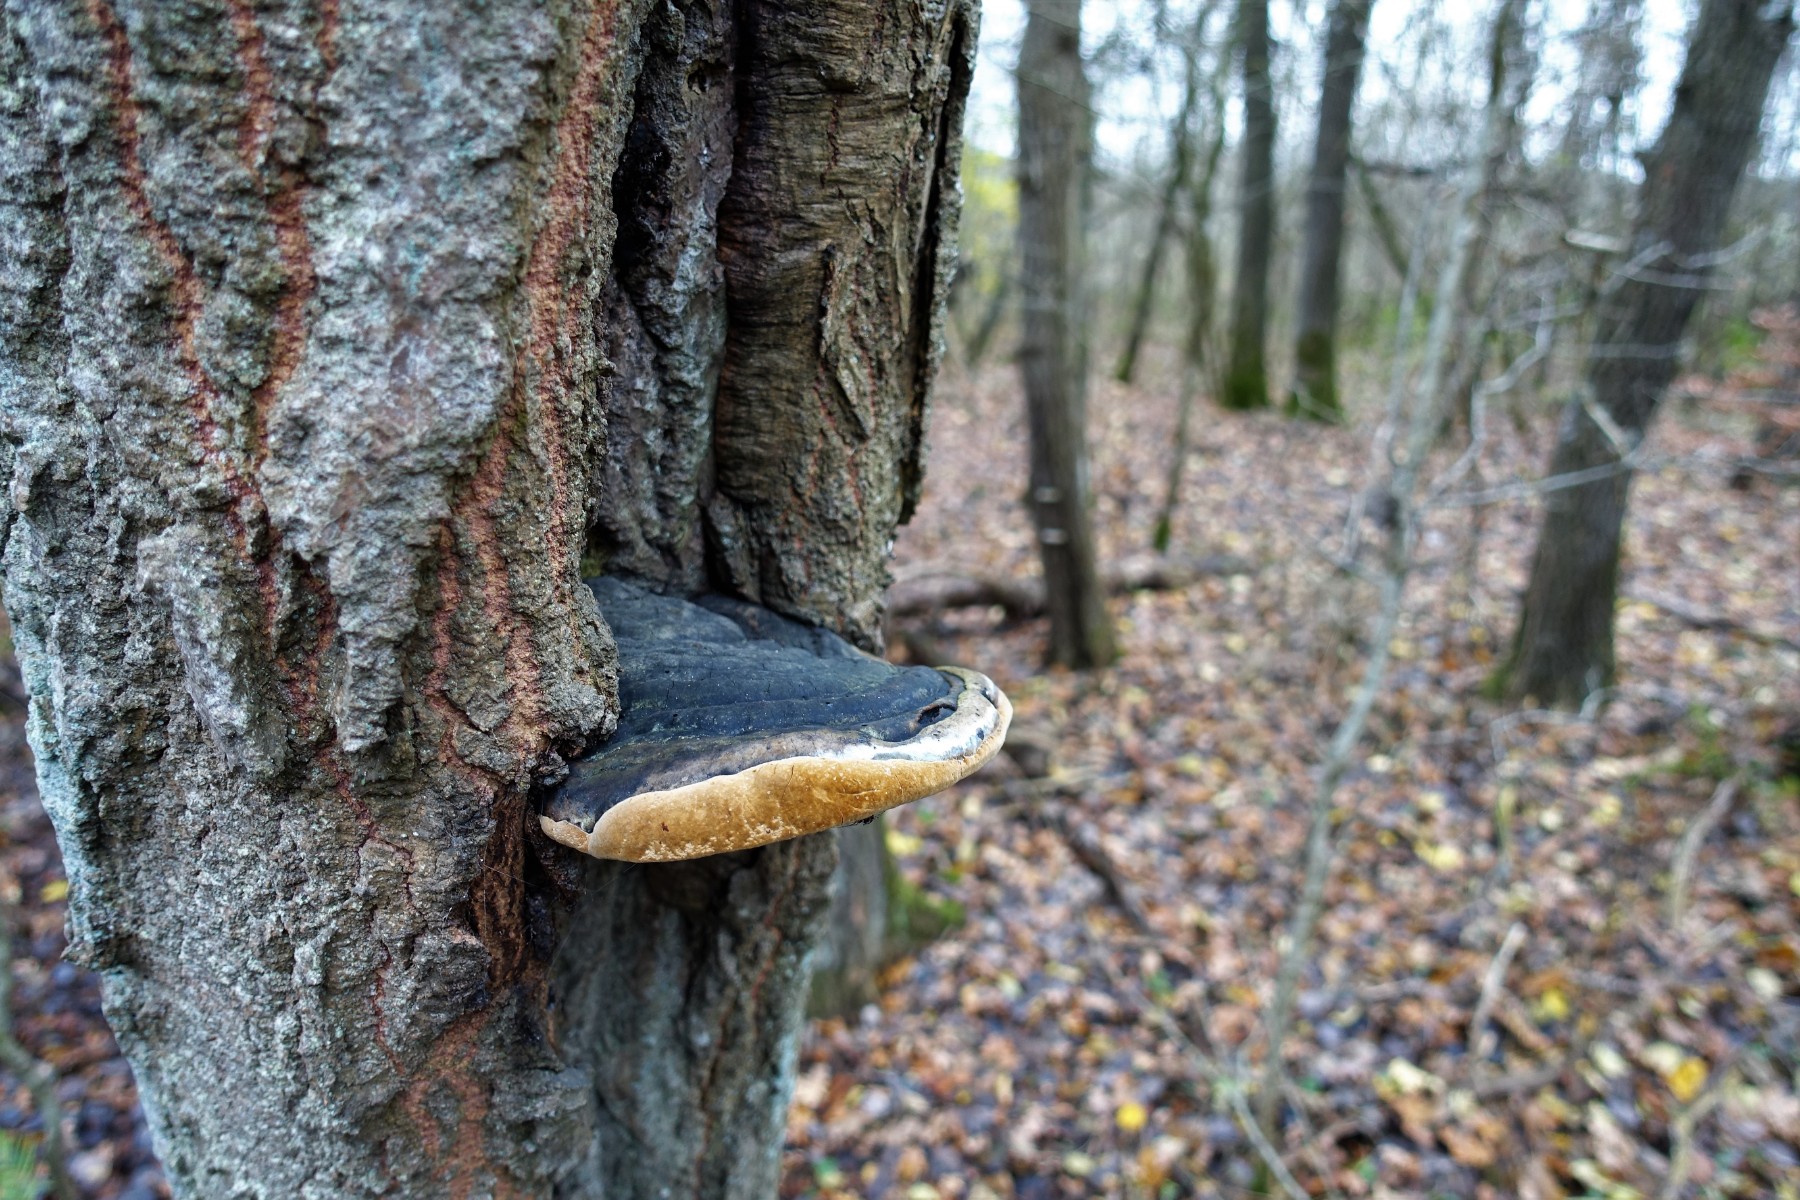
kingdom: Fungi
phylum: Basidiomycota
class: Agaricomycetes
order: Hymenochaetales
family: Hymenochaetaceae
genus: Phellinus
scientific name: Phellinus populicola
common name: poppel-ildporesvamp
